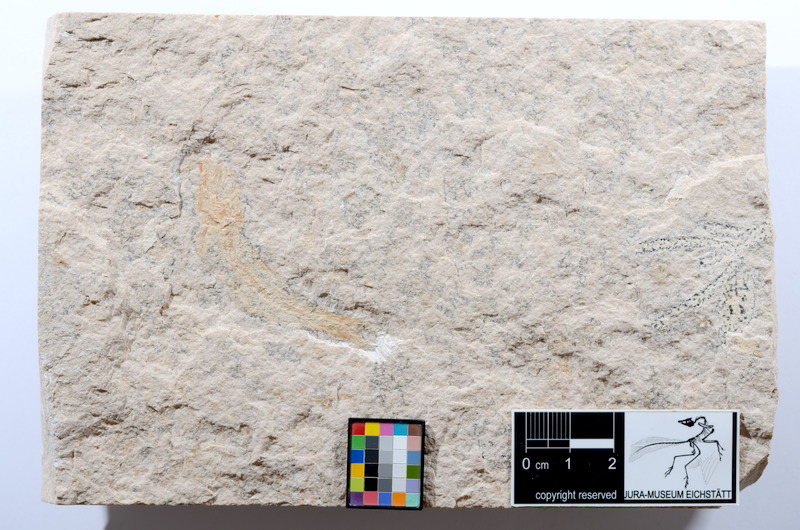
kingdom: Animalia
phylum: Chordata
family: Ascalaboidae
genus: Tharsis
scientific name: Tharsis dubius
